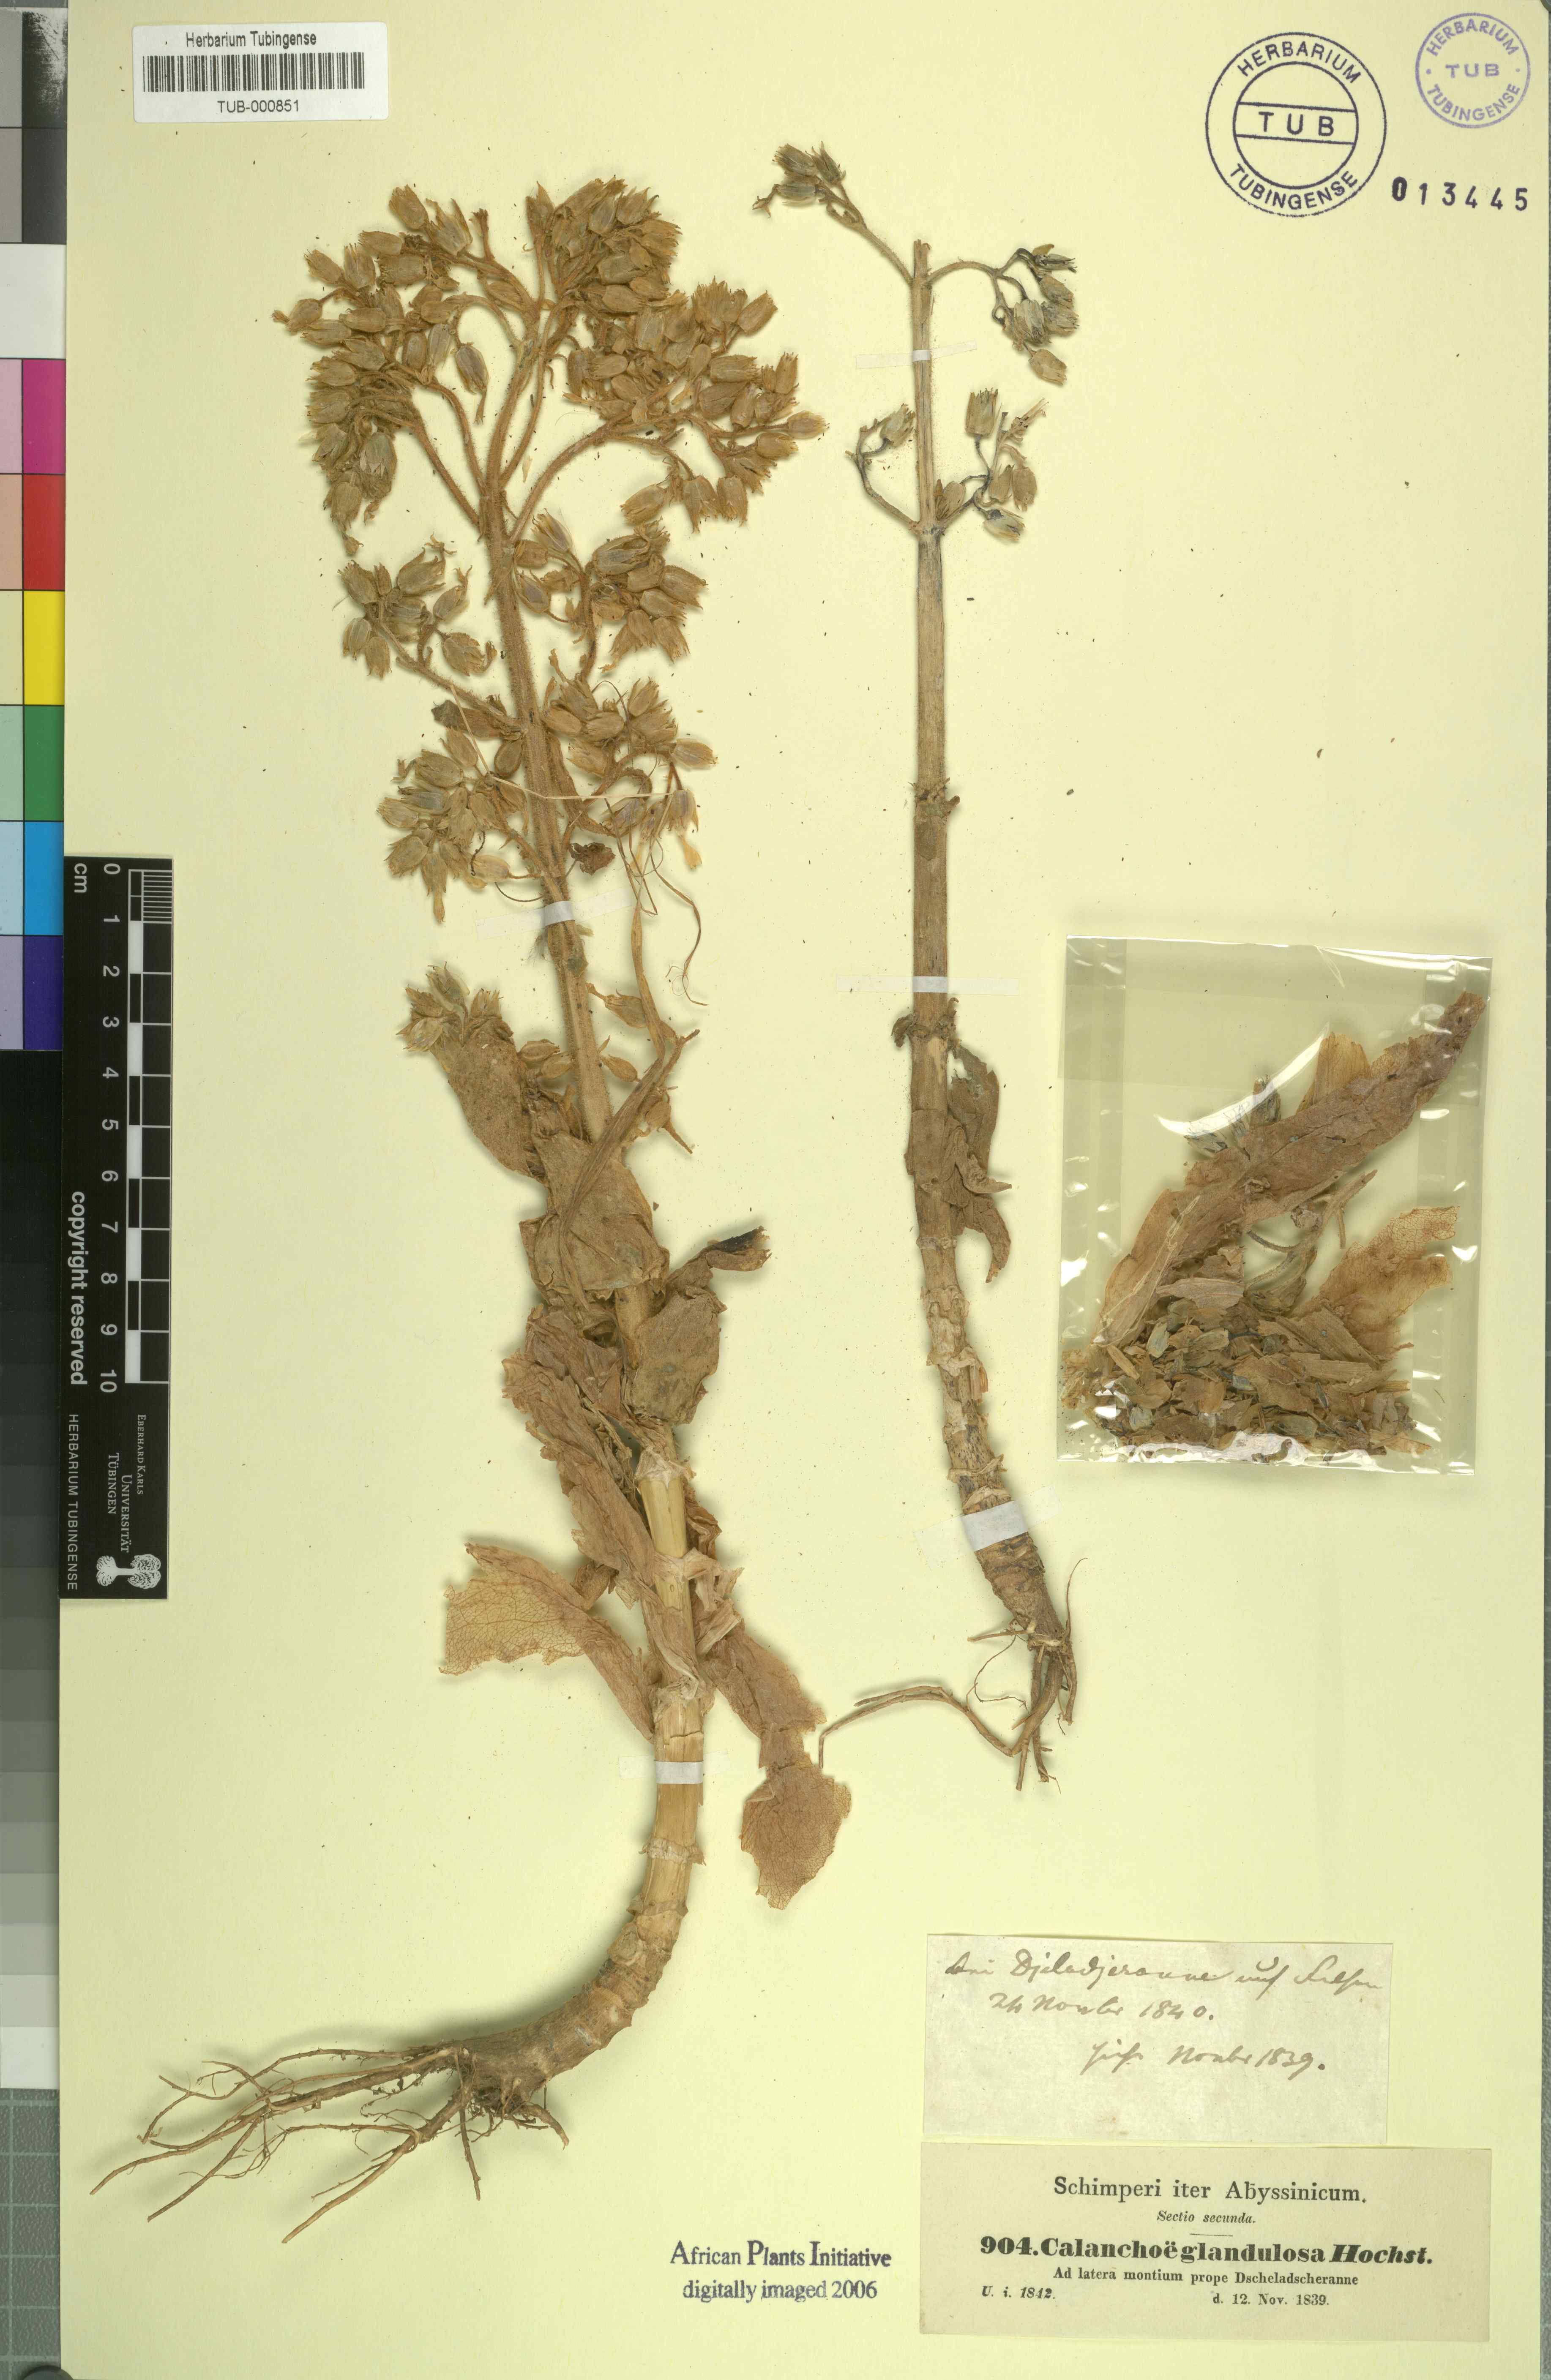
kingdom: Plantae
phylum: Tracheophyta
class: Magnoliopsida
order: Saxifragales
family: Crassulaceae
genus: Kalanchoe
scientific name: Kalanchoe lanceolata
